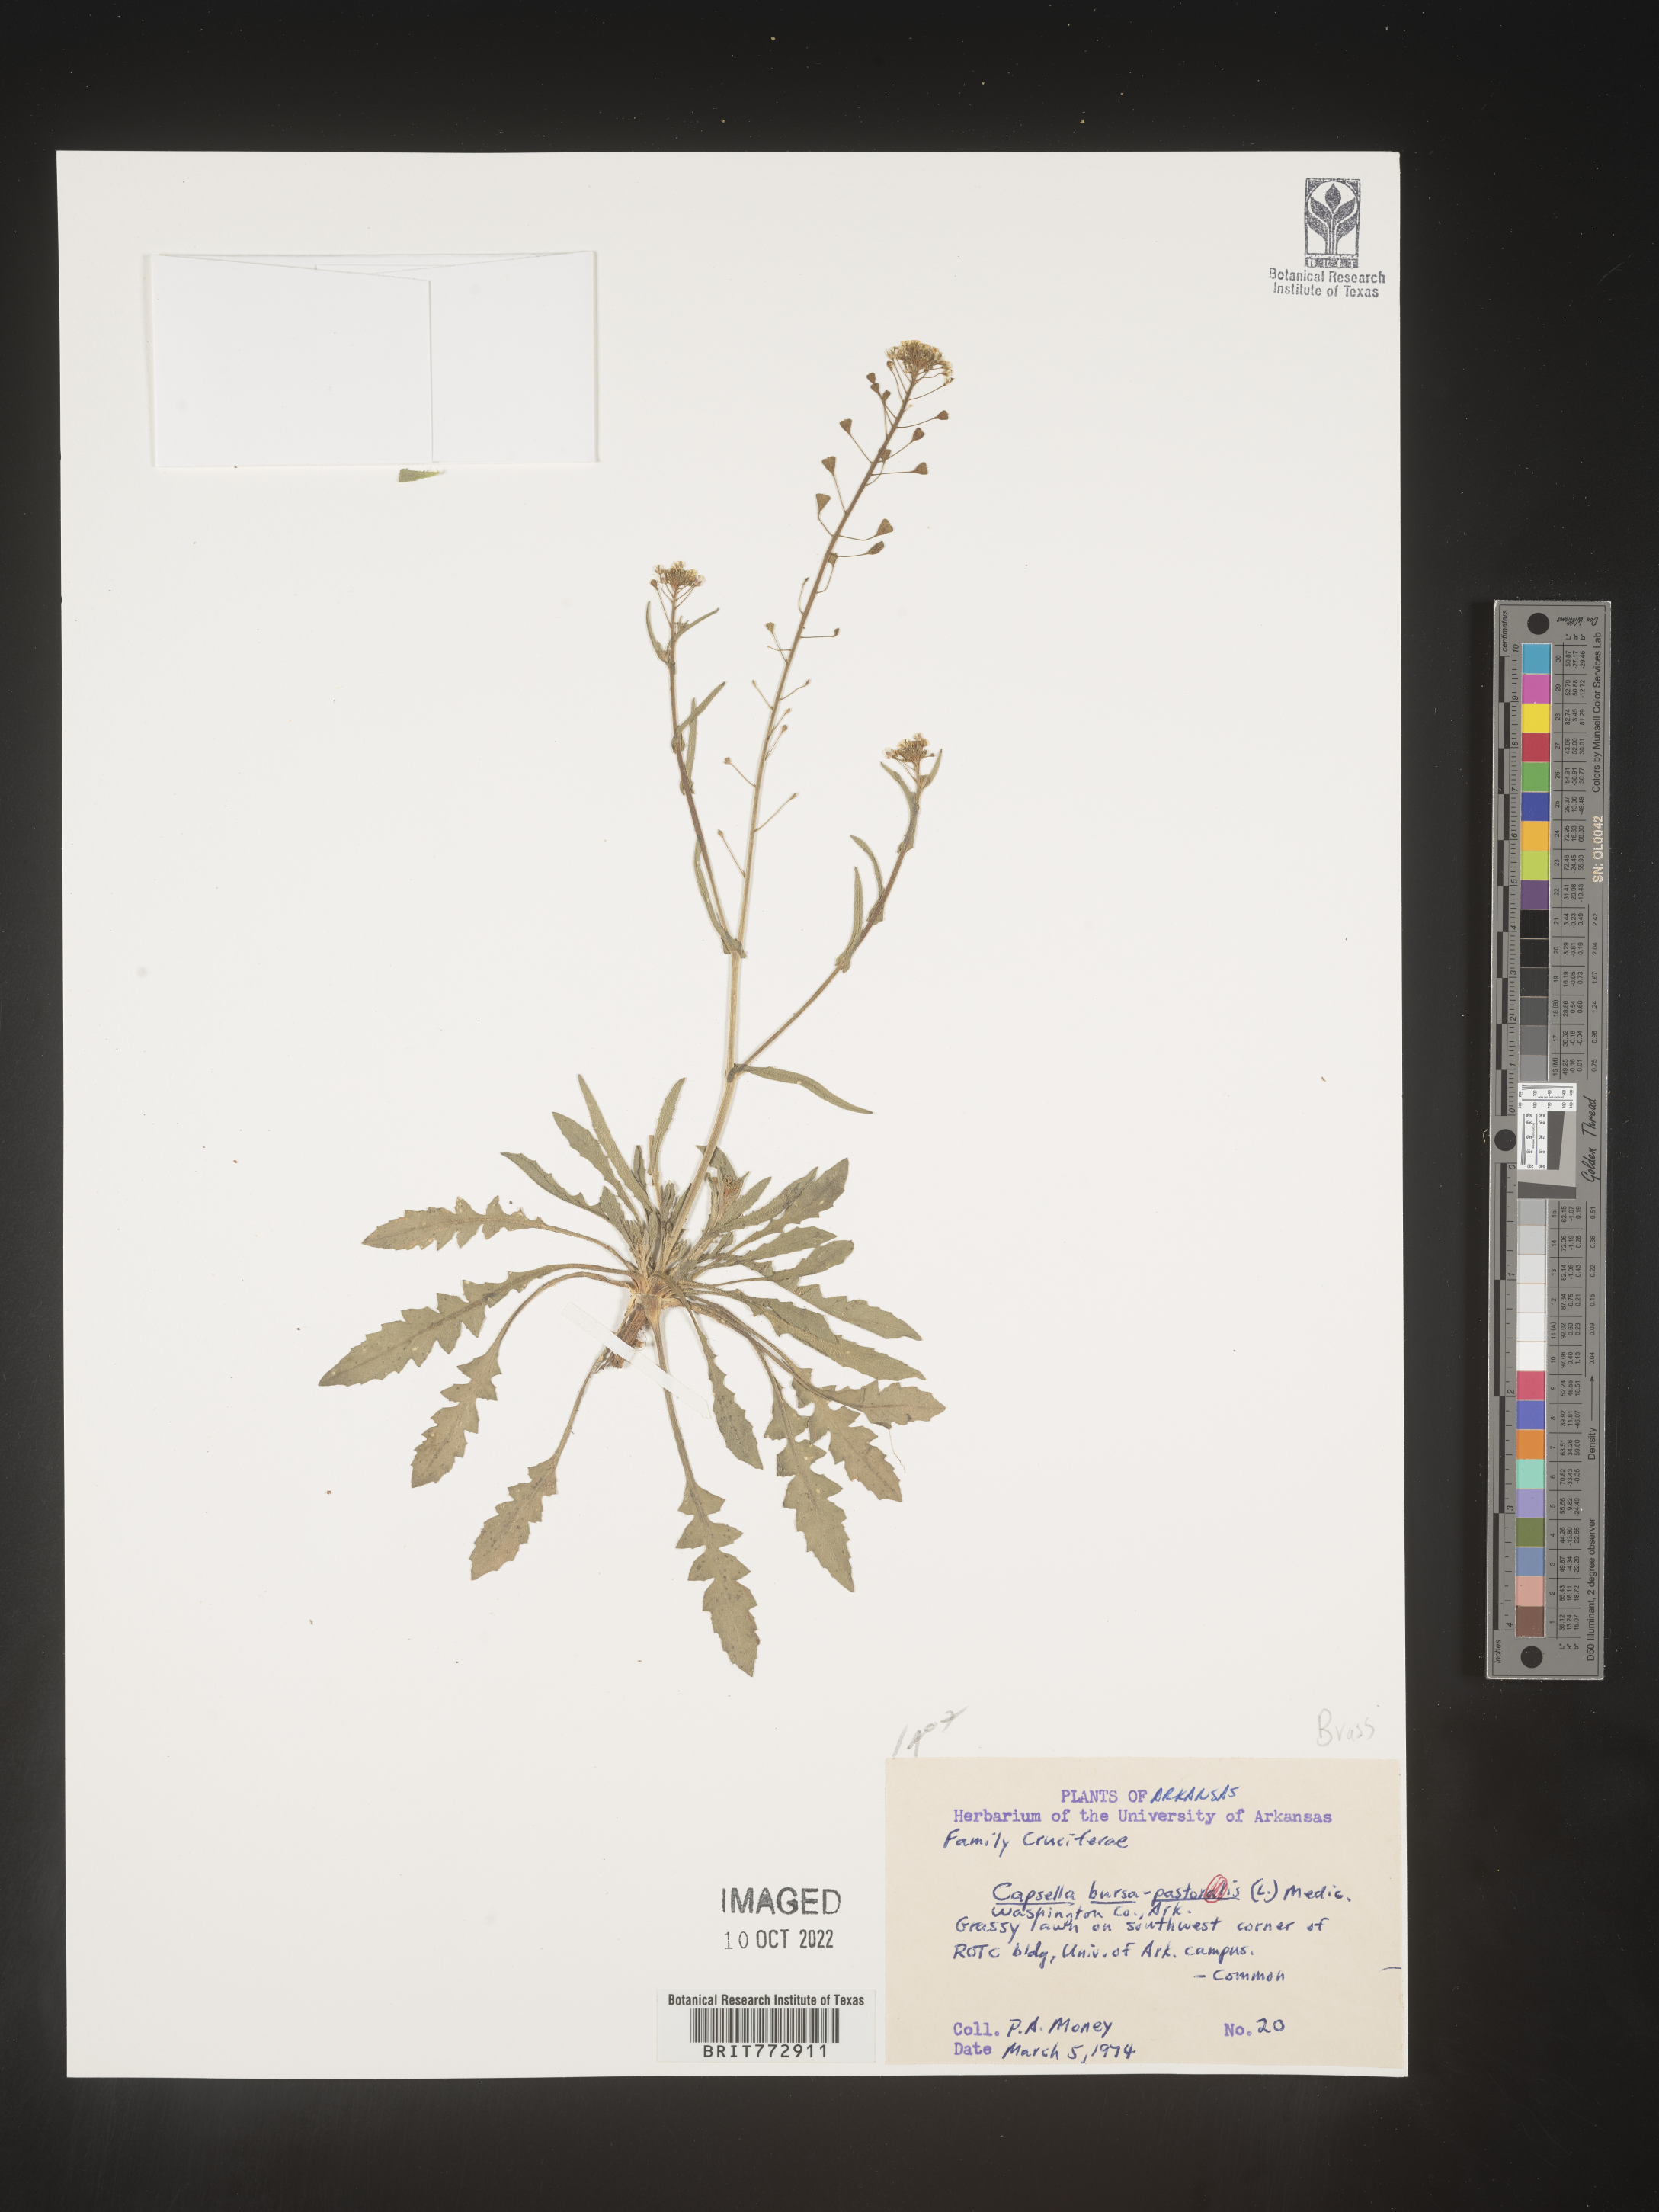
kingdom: Plantae
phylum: Tracheophyta
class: Magnoliopsida
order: Brassicales
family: Brassicaceae
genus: Capsella
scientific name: Capsella bursa-pastoris
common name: Shepherd's purse
